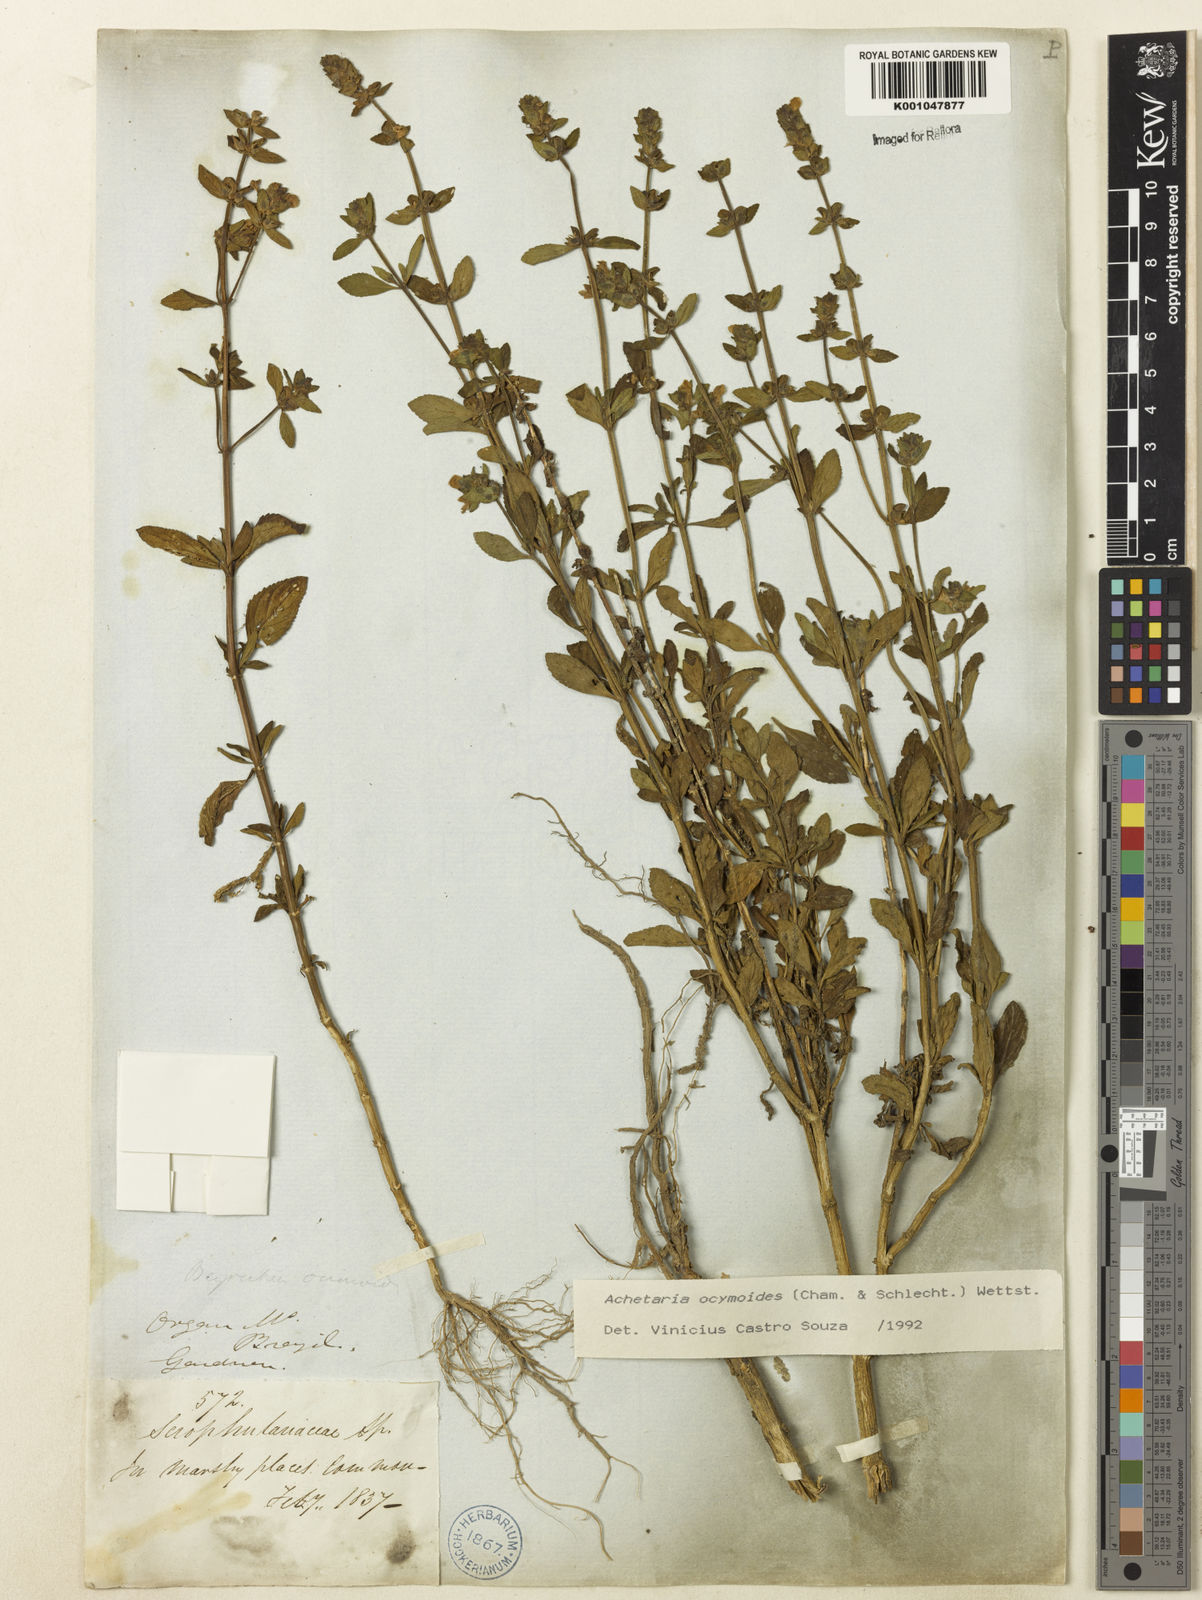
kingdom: Plantae
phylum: Tracheophyta
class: Magnoliopsida
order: Lamiales
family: Plantaginaceae
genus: Matourea
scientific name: Matourea ocymoides
